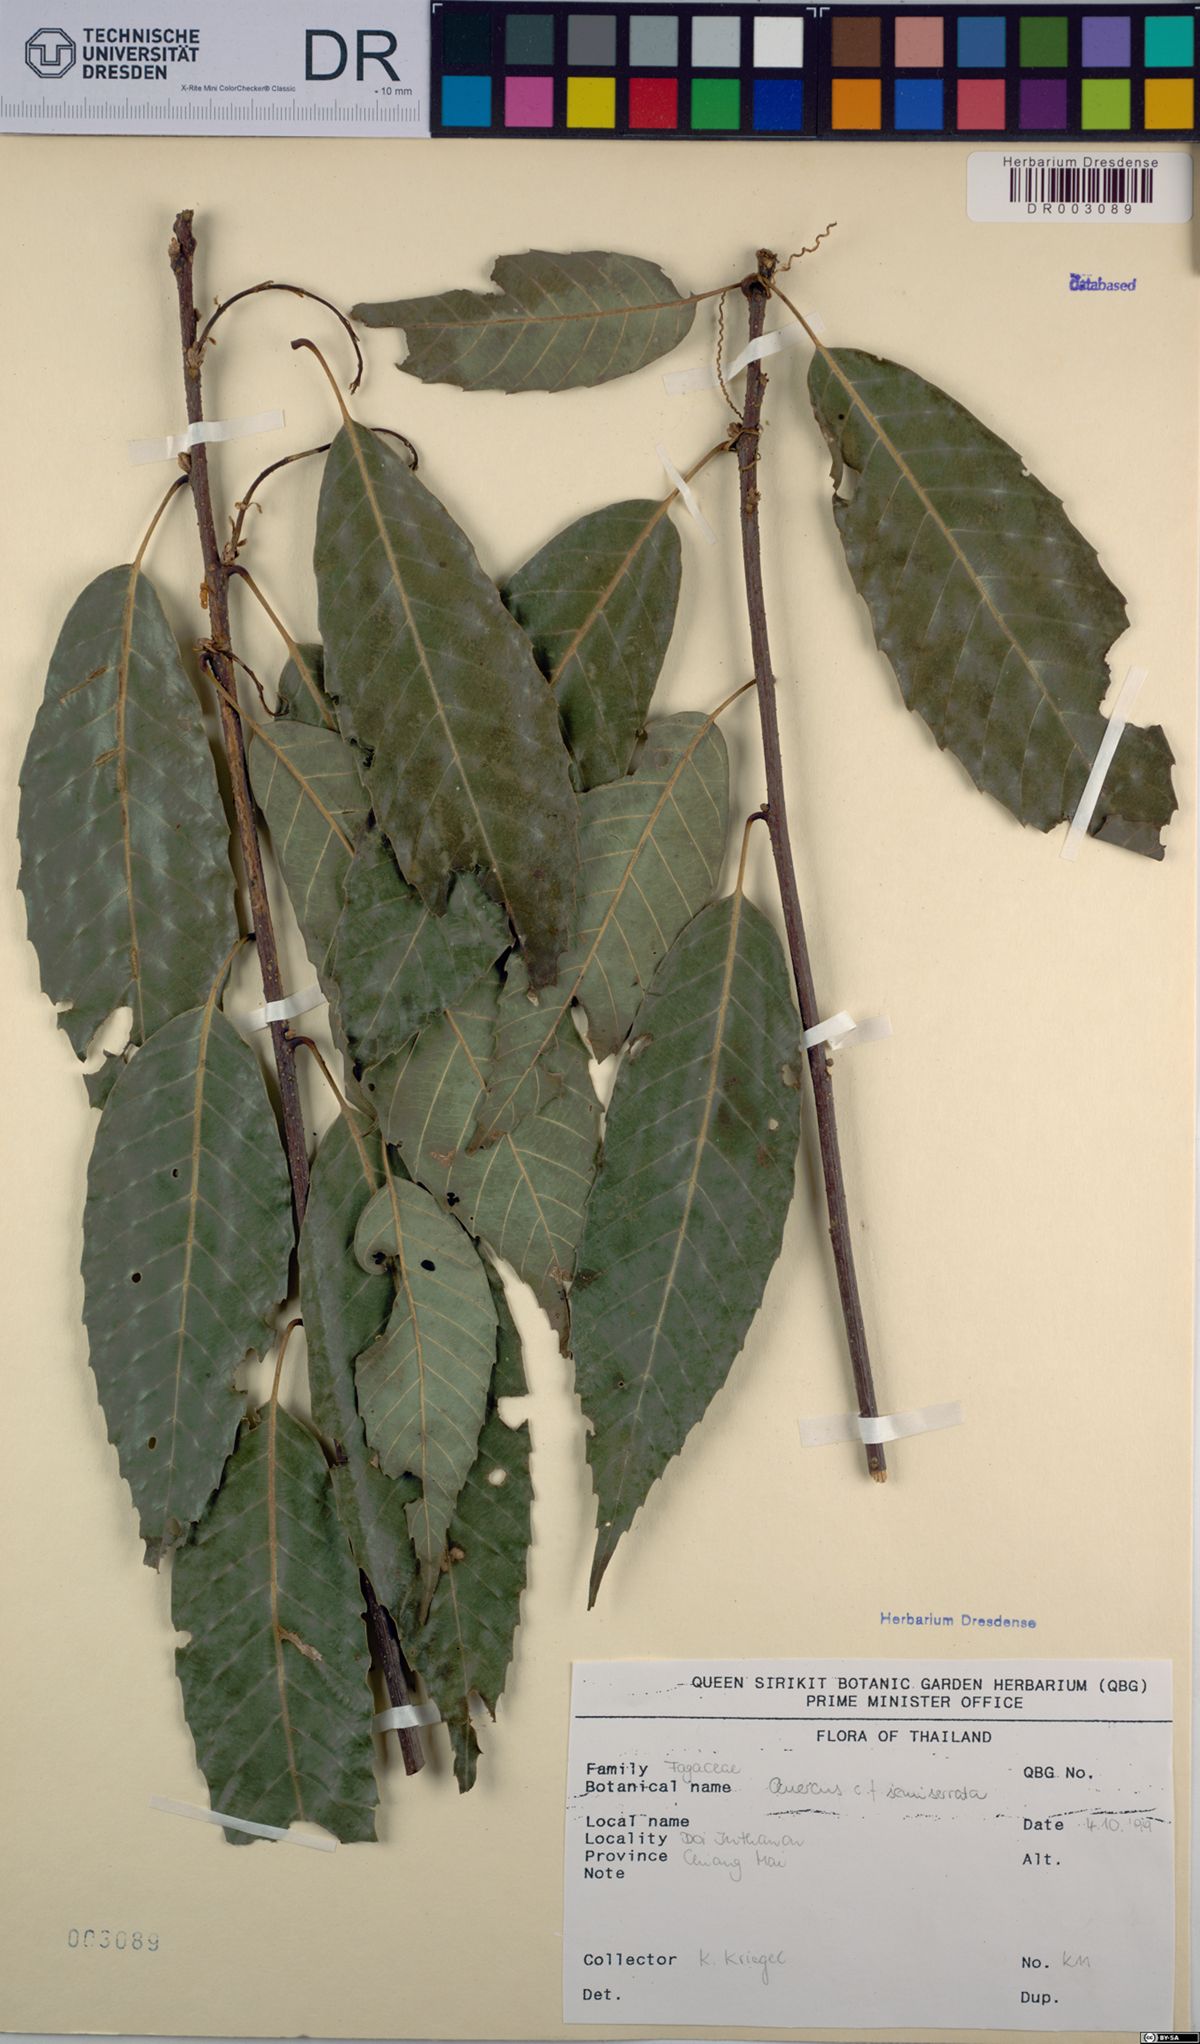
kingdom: Plantae
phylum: Tracheophyta
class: Magnoliopsida
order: Fagales
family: Fagaceae
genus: Quercus
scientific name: Quercus semiserrata
